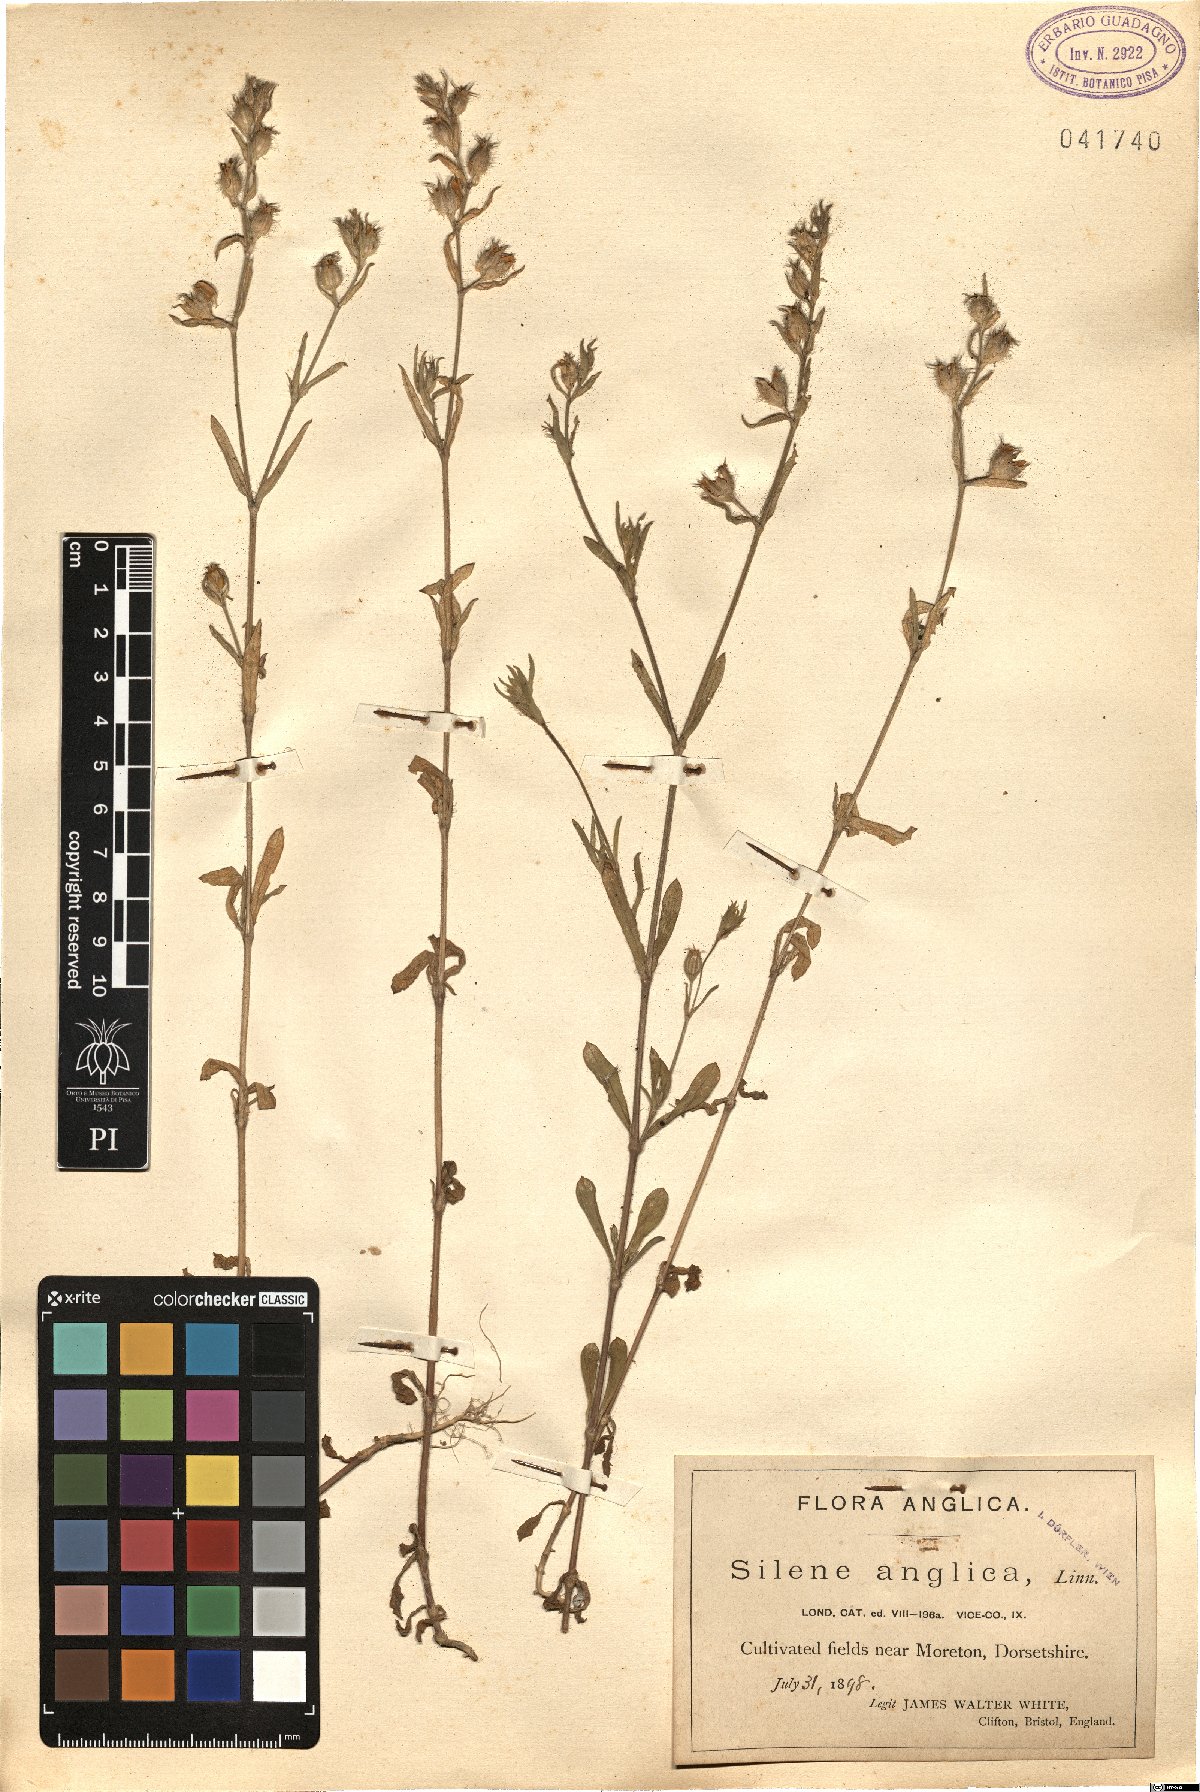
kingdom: Plantae
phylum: Tracheophyta
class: Magnoliopsida
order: Caryophyllales
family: Caryophyllaceae
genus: Silene
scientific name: Silene gallica
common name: Small-flowered catchfly
